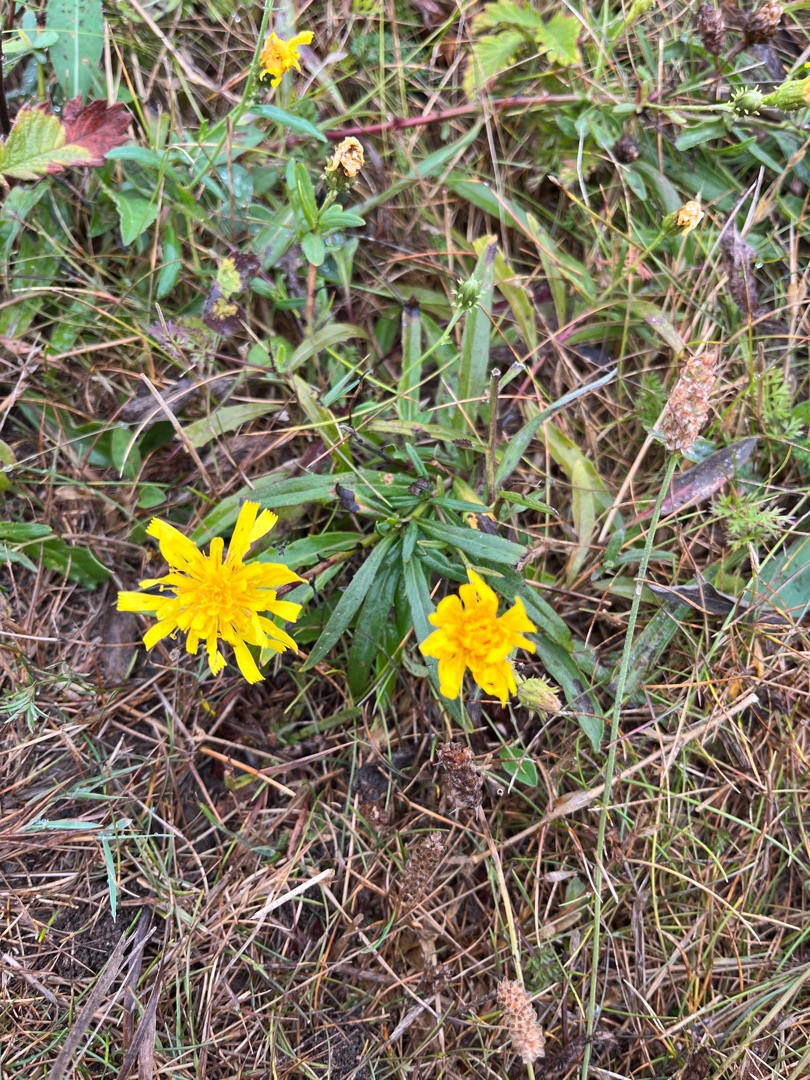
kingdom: Plantae
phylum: Tracheophyta
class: Magnoliopsida
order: Asterales
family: Asteraceae
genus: Hieracium
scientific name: Hieracium umbellatum
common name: Smalbladet høgeurt
